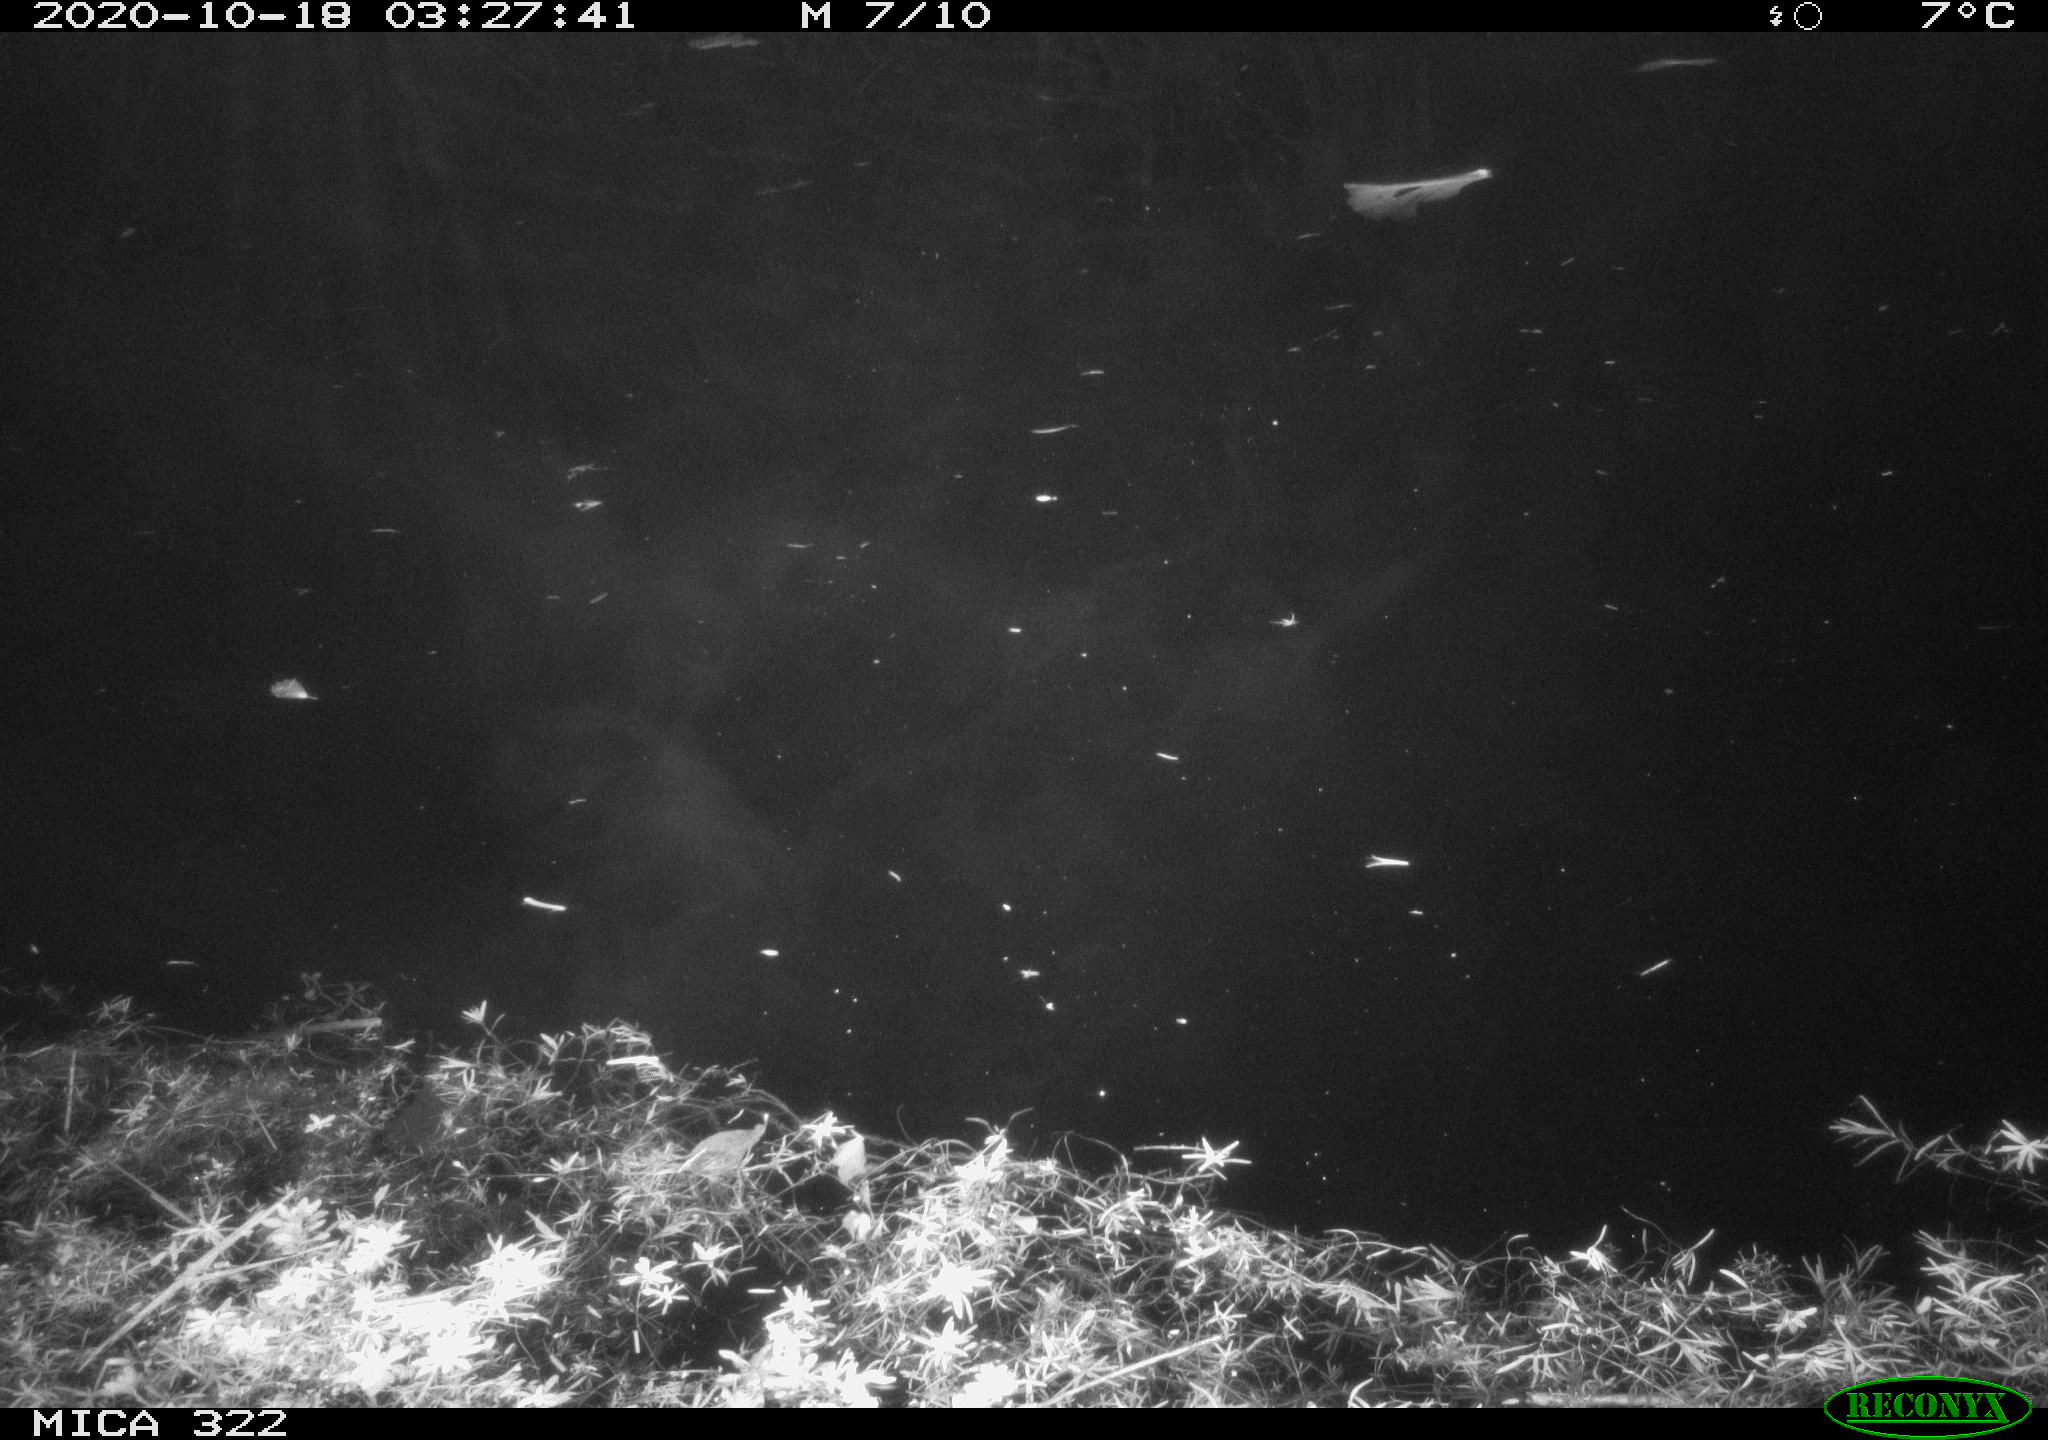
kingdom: Animalia
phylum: Chordata
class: Mammalia
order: Rodentia
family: Muridae
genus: Rattus
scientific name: Rattus norvegicus
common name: Brown rat
